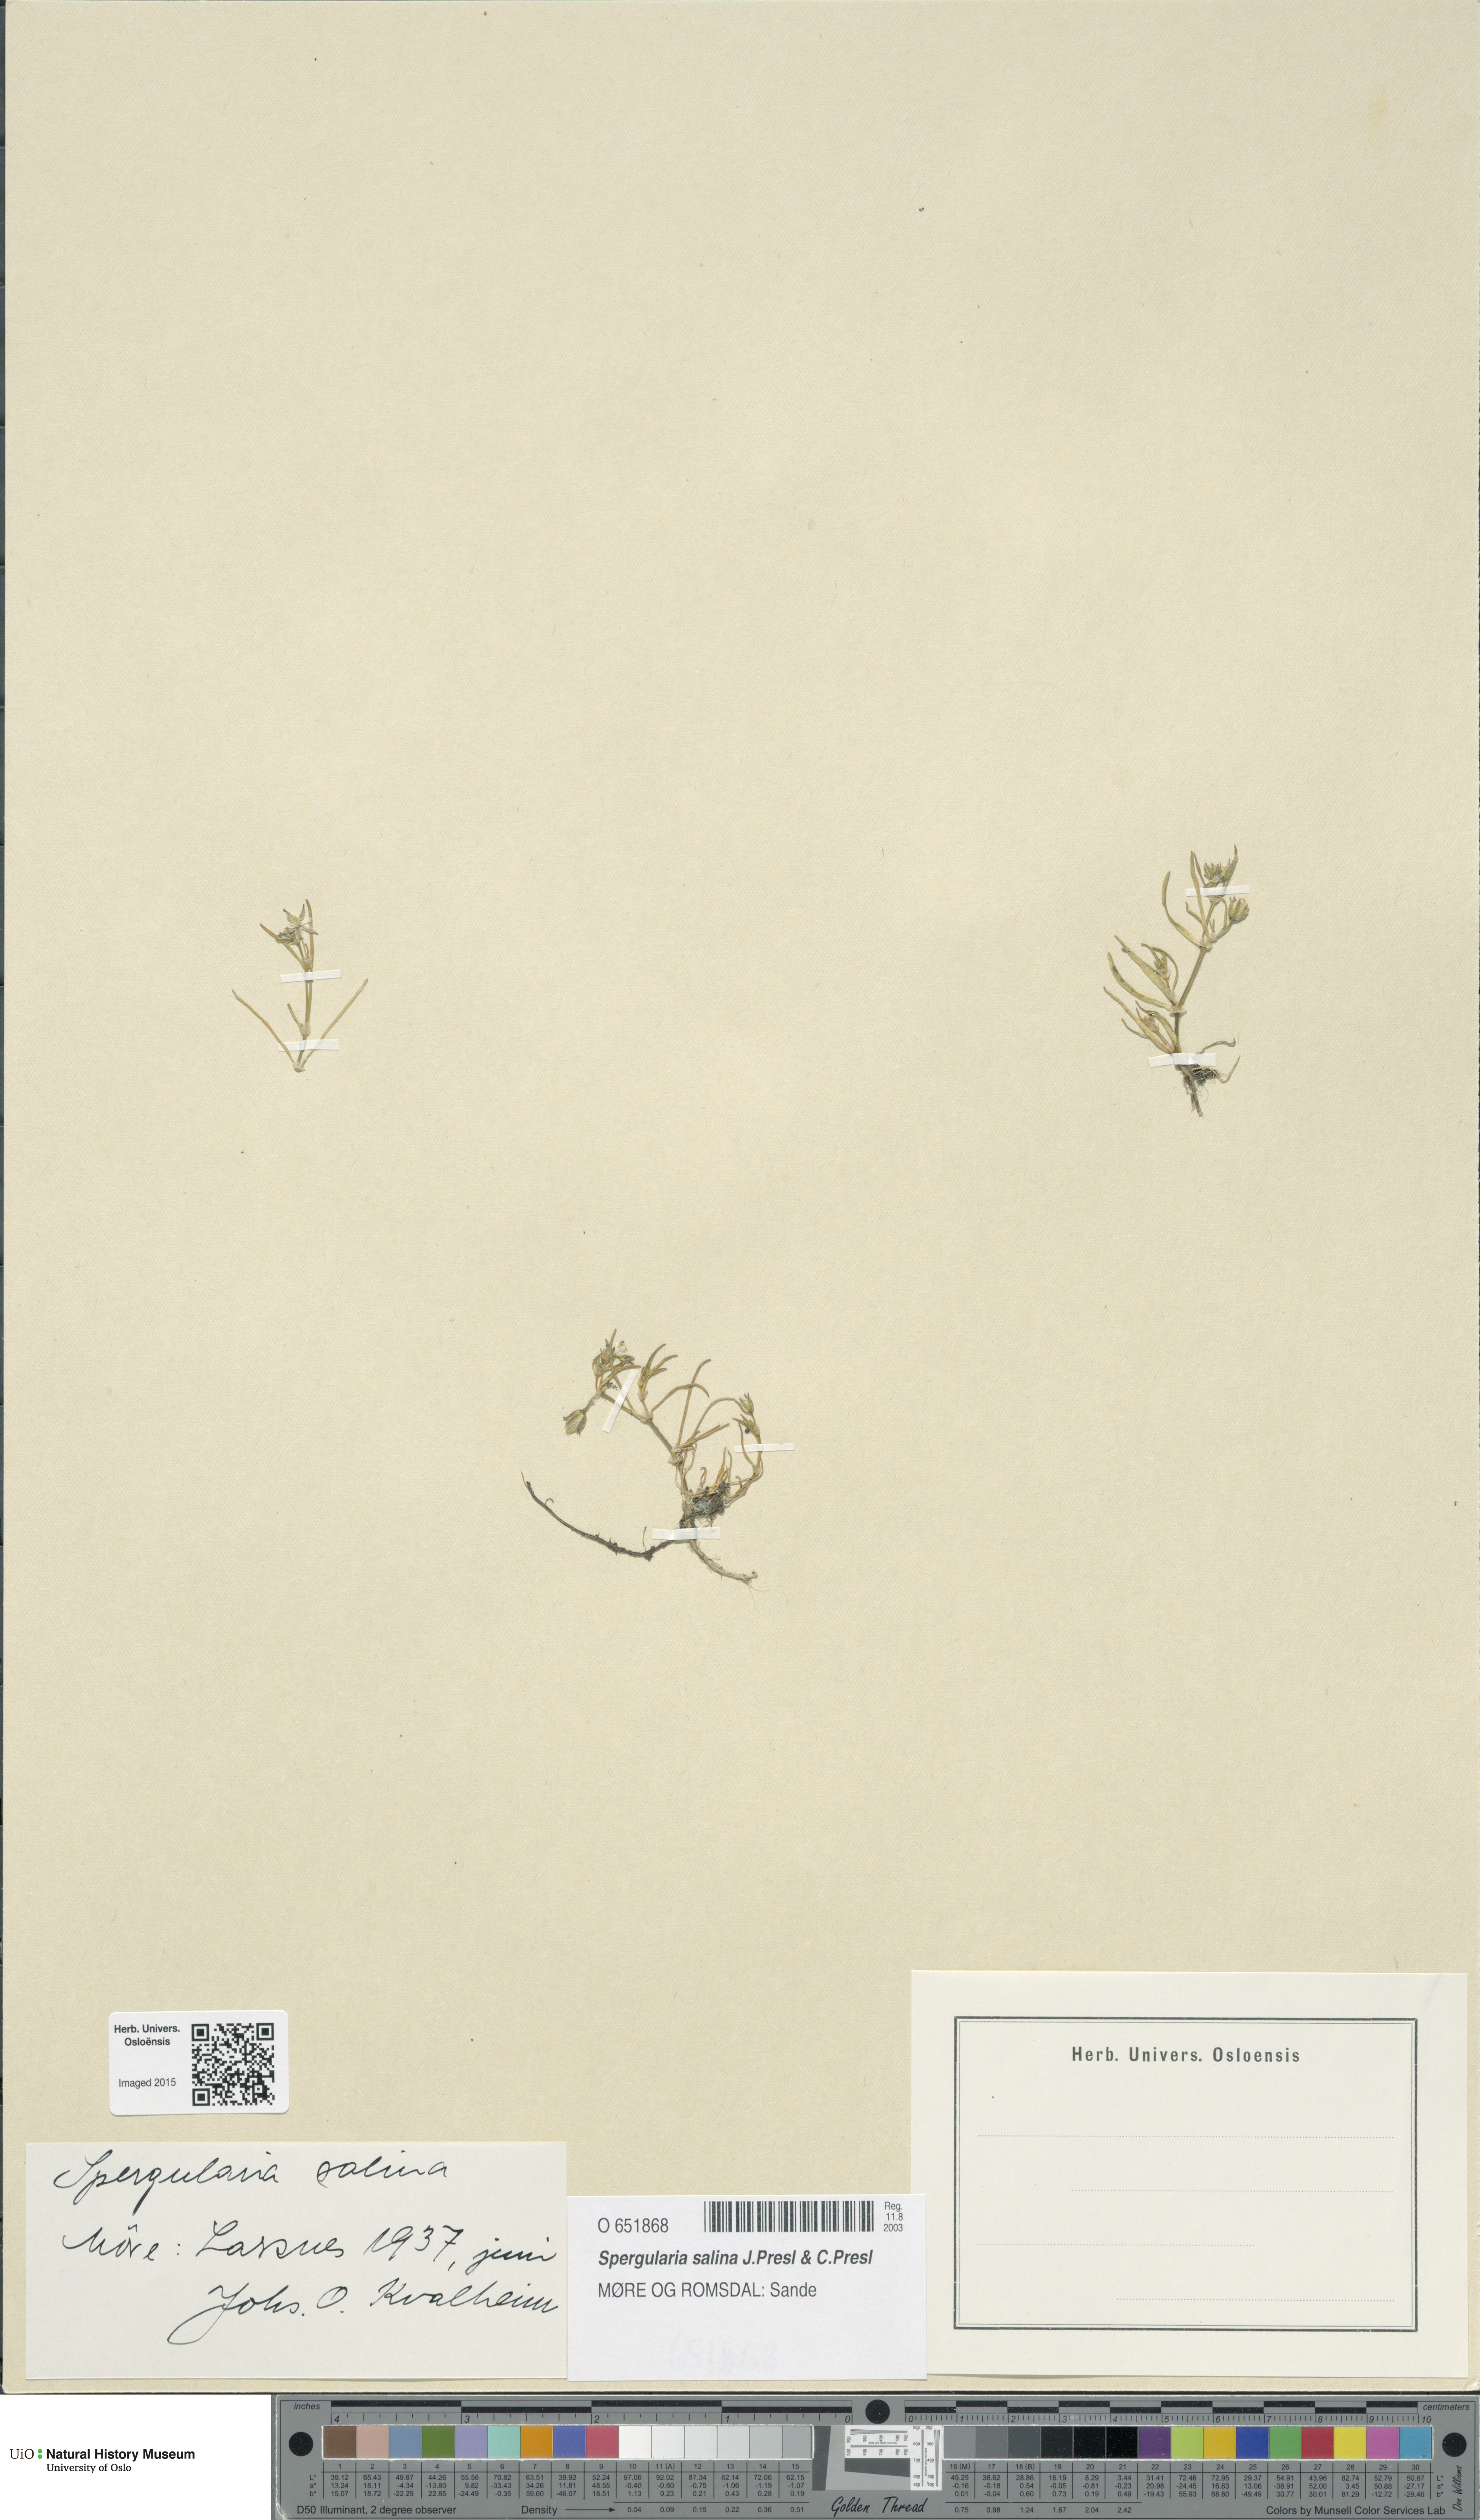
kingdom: Plantae
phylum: Tracheophyta
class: Magnoliopsida
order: Caryophyllales
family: Caryophyllaceae
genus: Spergularia
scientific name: Spergularia marina
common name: Lesser sea-spurrey
